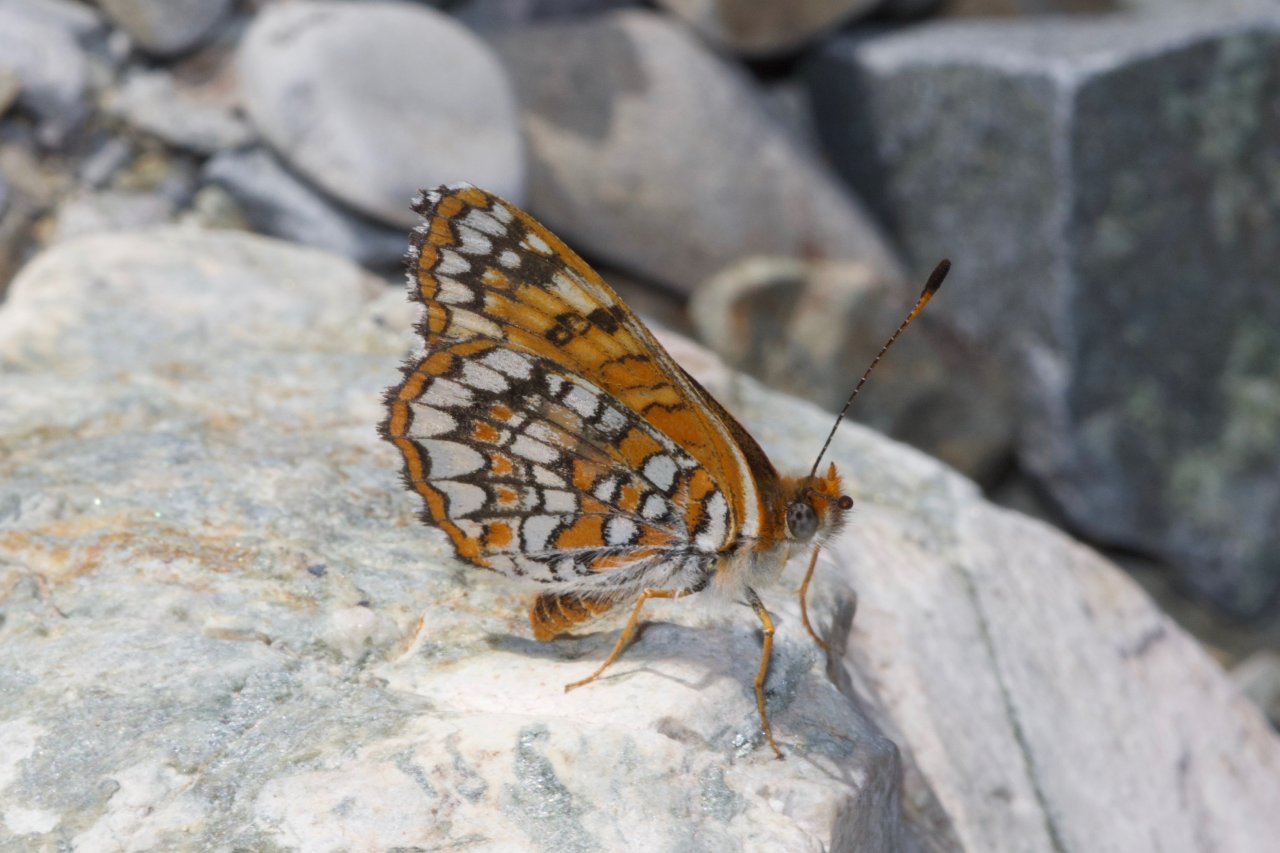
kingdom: Animalia
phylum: Arthropoda
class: Insecta
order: Lepidoptera
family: Nymphalidae
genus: Chlosyne
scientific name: Chlosyne acastus
